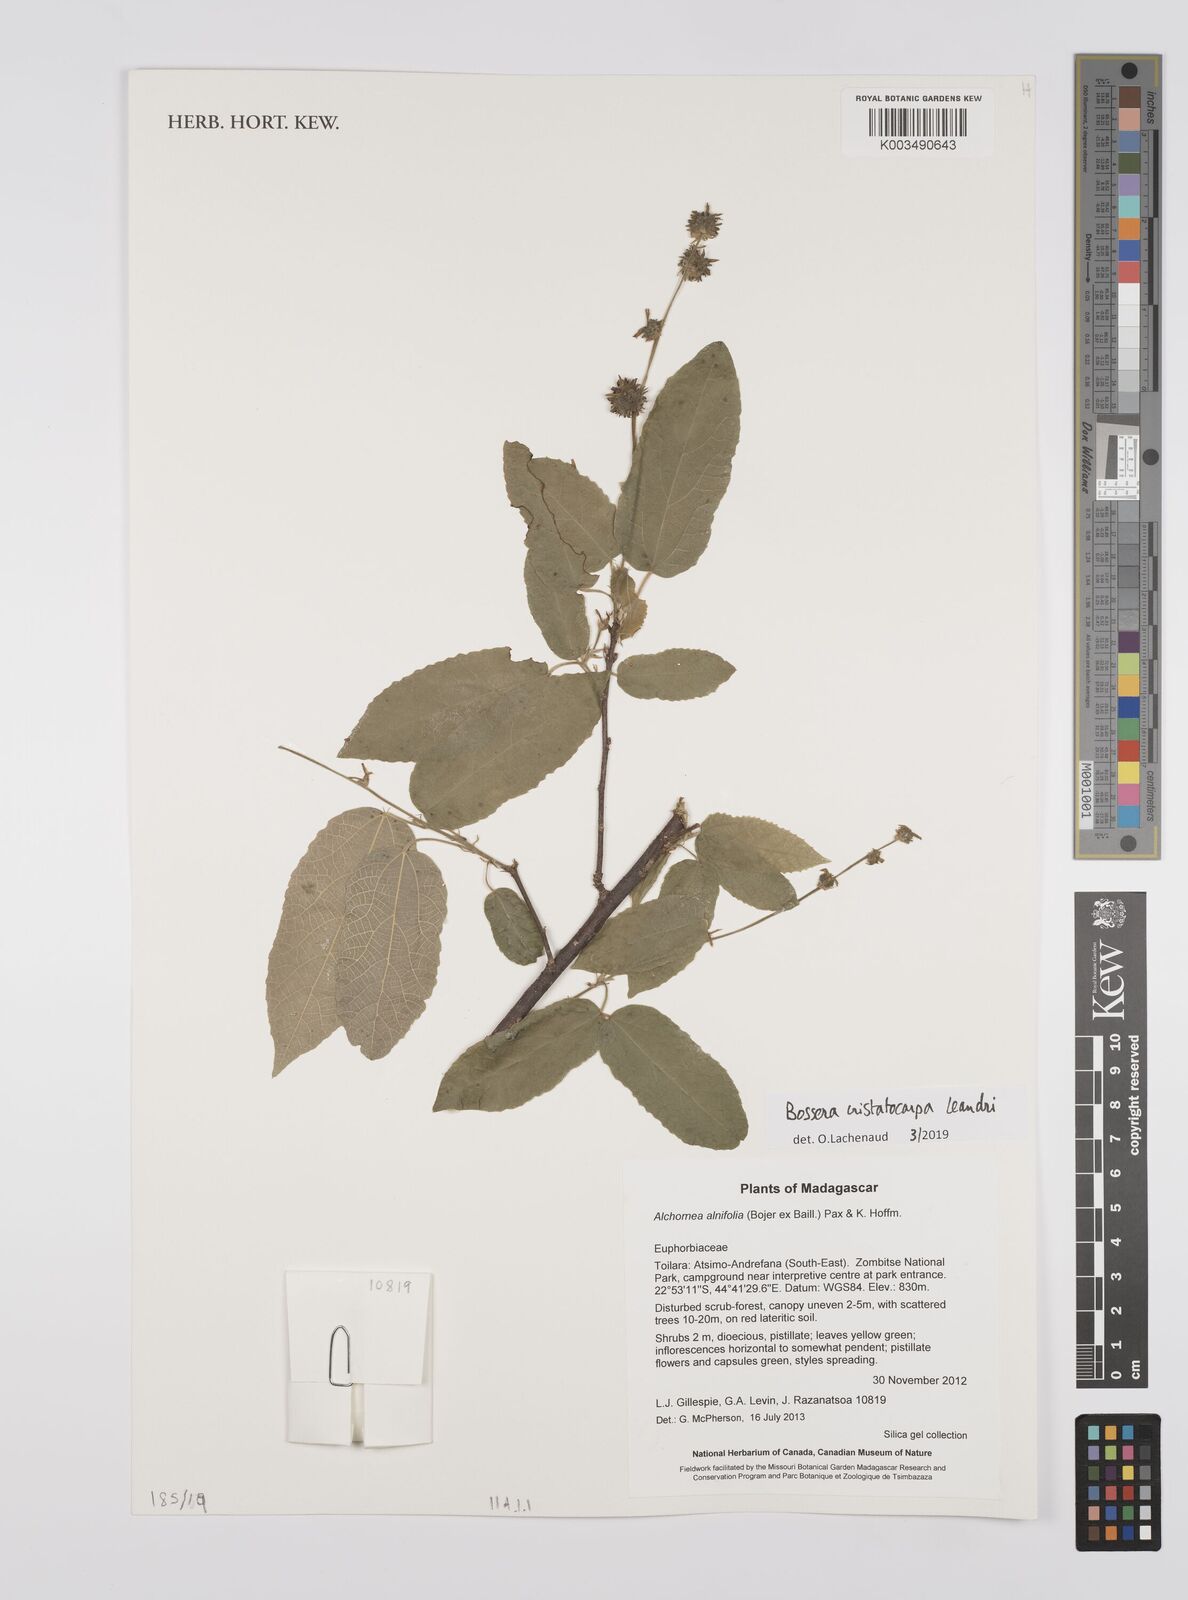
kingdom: Plantae
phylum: Tracheophyta
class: Magnoliopsida
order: Malpighiales
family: Euphorbiaceae
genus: Bossera
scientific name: Bossera cristatocarpa
